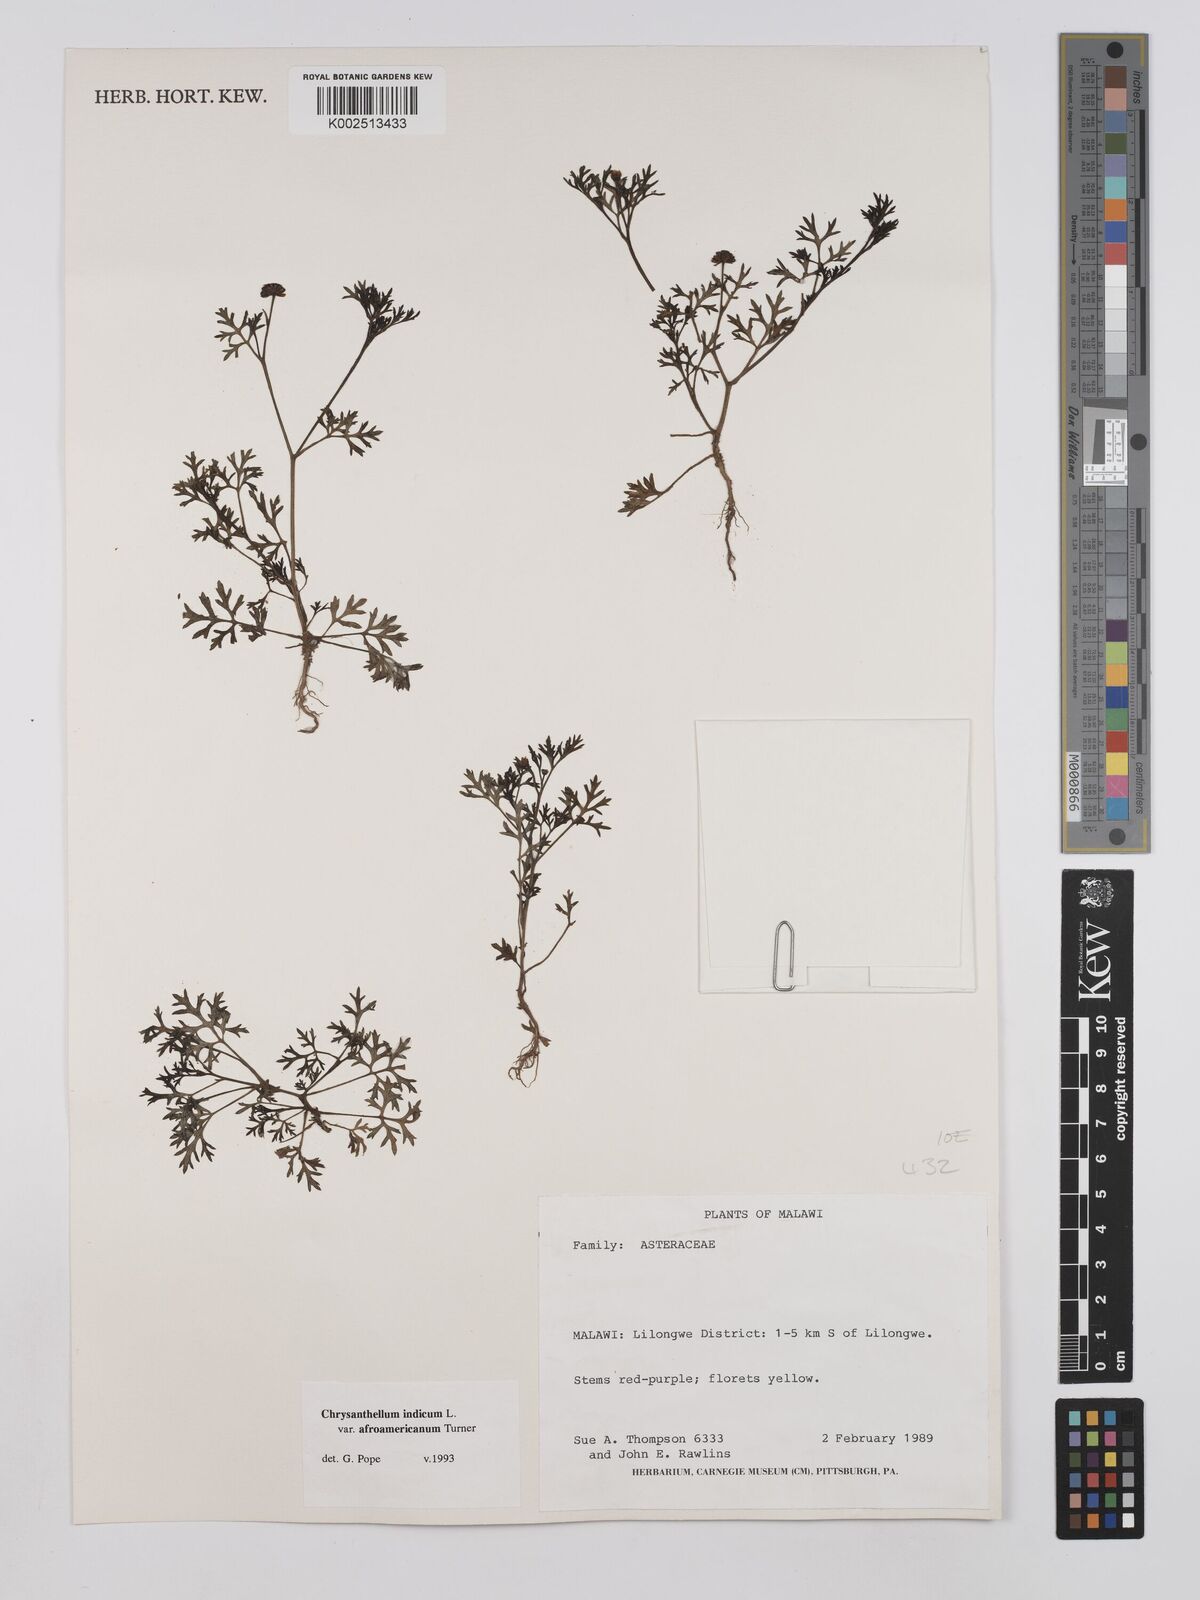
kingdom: Plantae
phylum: Tracheophyta
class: Magnoliopsida
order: Asterales
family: Asteraceae
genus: Chrysanthellum
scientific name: Chrysanthellum indicum
